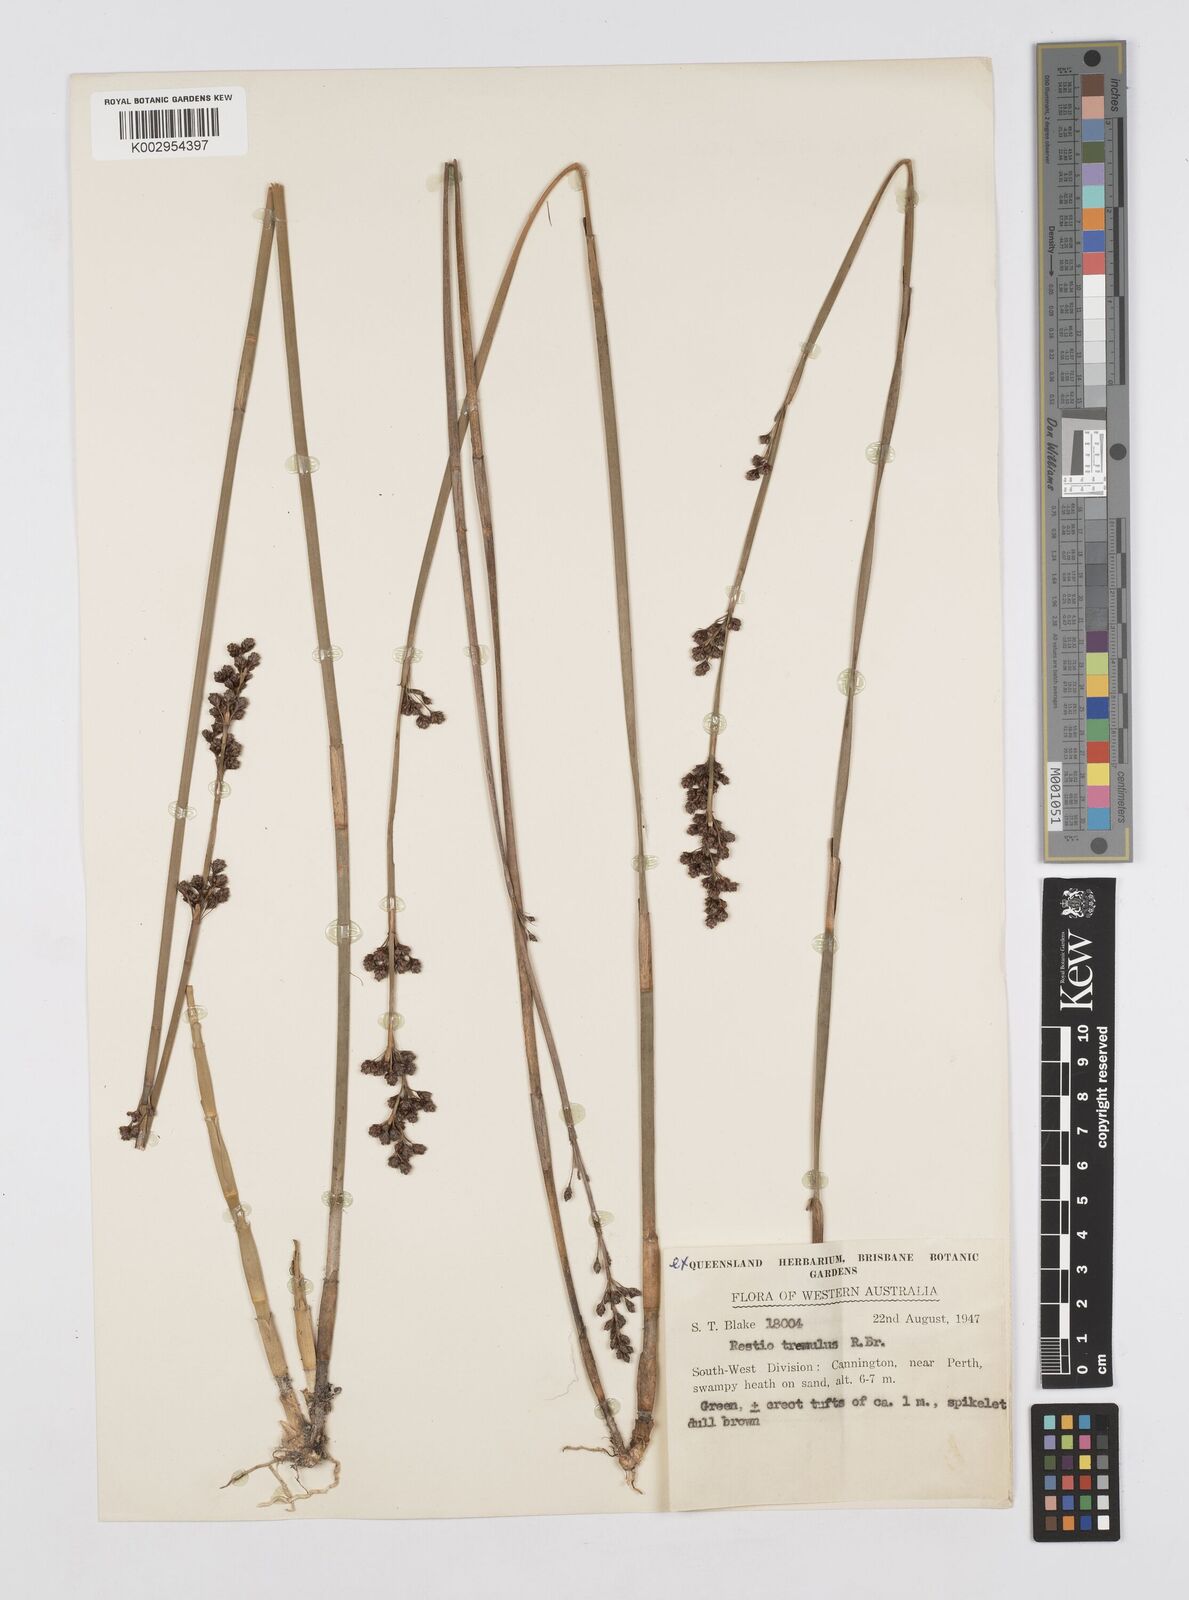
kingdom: Plantae
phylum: Tracheophyta
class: Liliopsida
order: Poales
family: Restionaceae
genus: Tremulina
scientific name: Tremulina tremula
